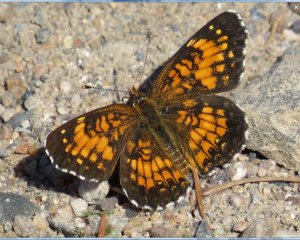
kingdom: Animalia
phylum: Arthropoda
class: Insecta
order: Lepidoptera
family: Nymphalidae
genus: Chlosyne
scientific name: Chlosyne harrisii
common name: Harris's Checkerspot
